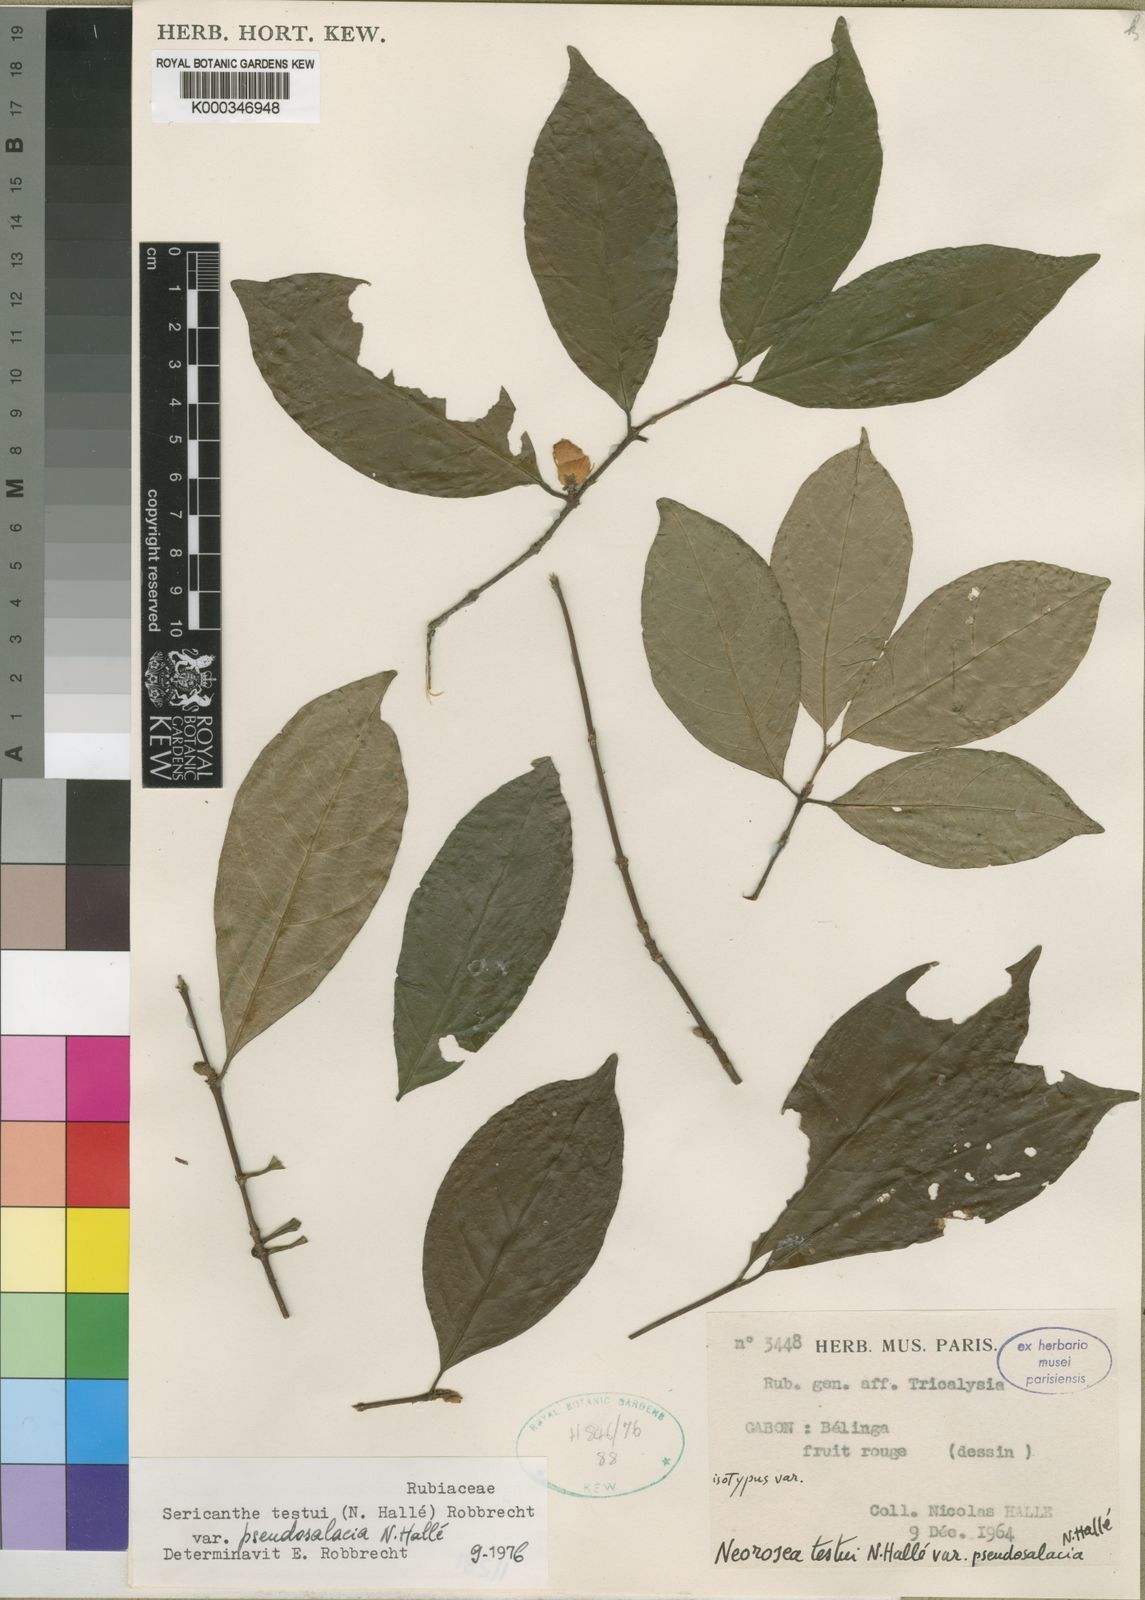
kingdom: Plantae
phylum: Tracheophyta
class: Magnoliopsida
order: Gentianales
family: Rubiaceae
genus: Sericanthe
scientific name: Sericanthe
